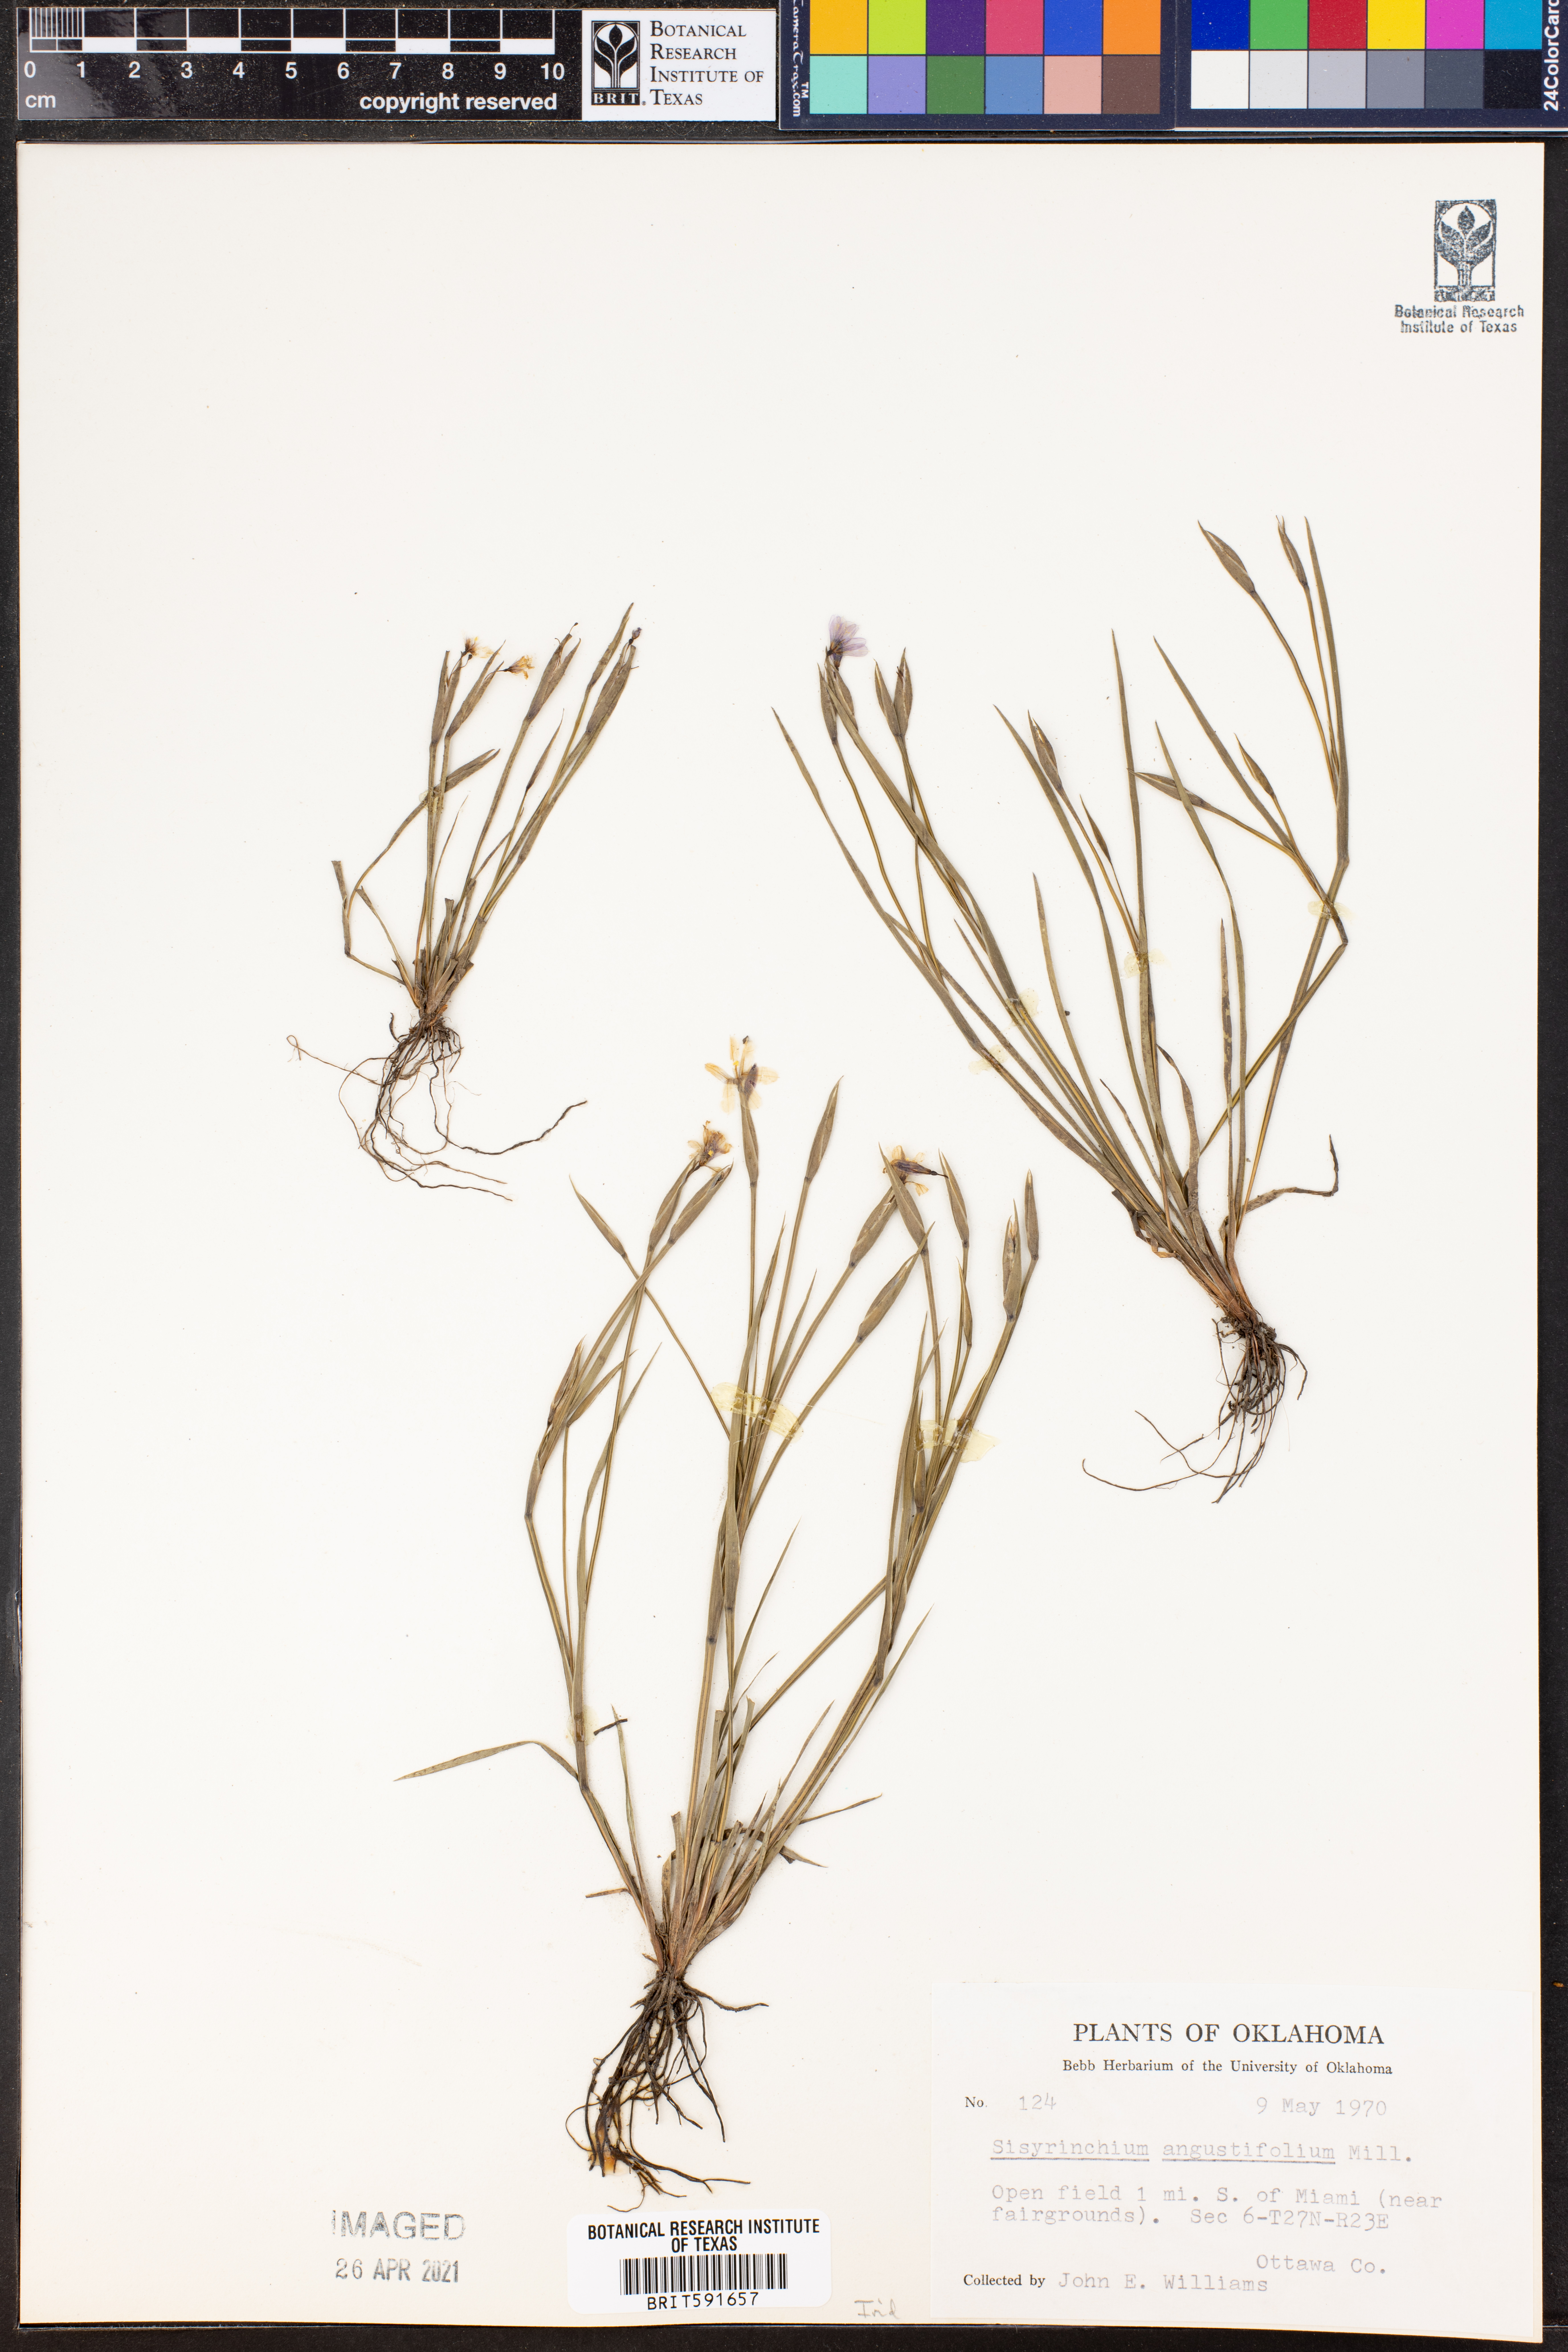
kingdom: Plantae
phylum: Tracheophyta
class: Liliopsida
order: Asparagales
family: Iridaceae
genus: Sisyrinchium
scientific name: Sisyrinchium angustifolium
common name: Narrow-leaf blue-eyed-grass
